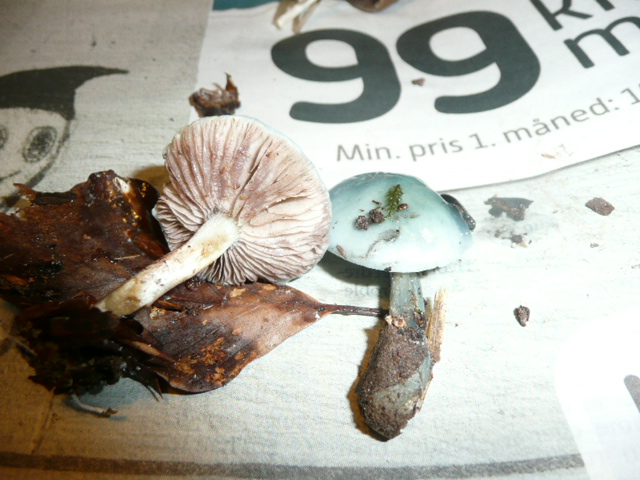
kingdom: Fungi
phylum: Basidiomycota
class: Agaricomycetes
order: Agaricales
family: Strophariaceae
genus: Stropharia
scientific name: Stropharia cyanea
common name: blågrøn bredblad
